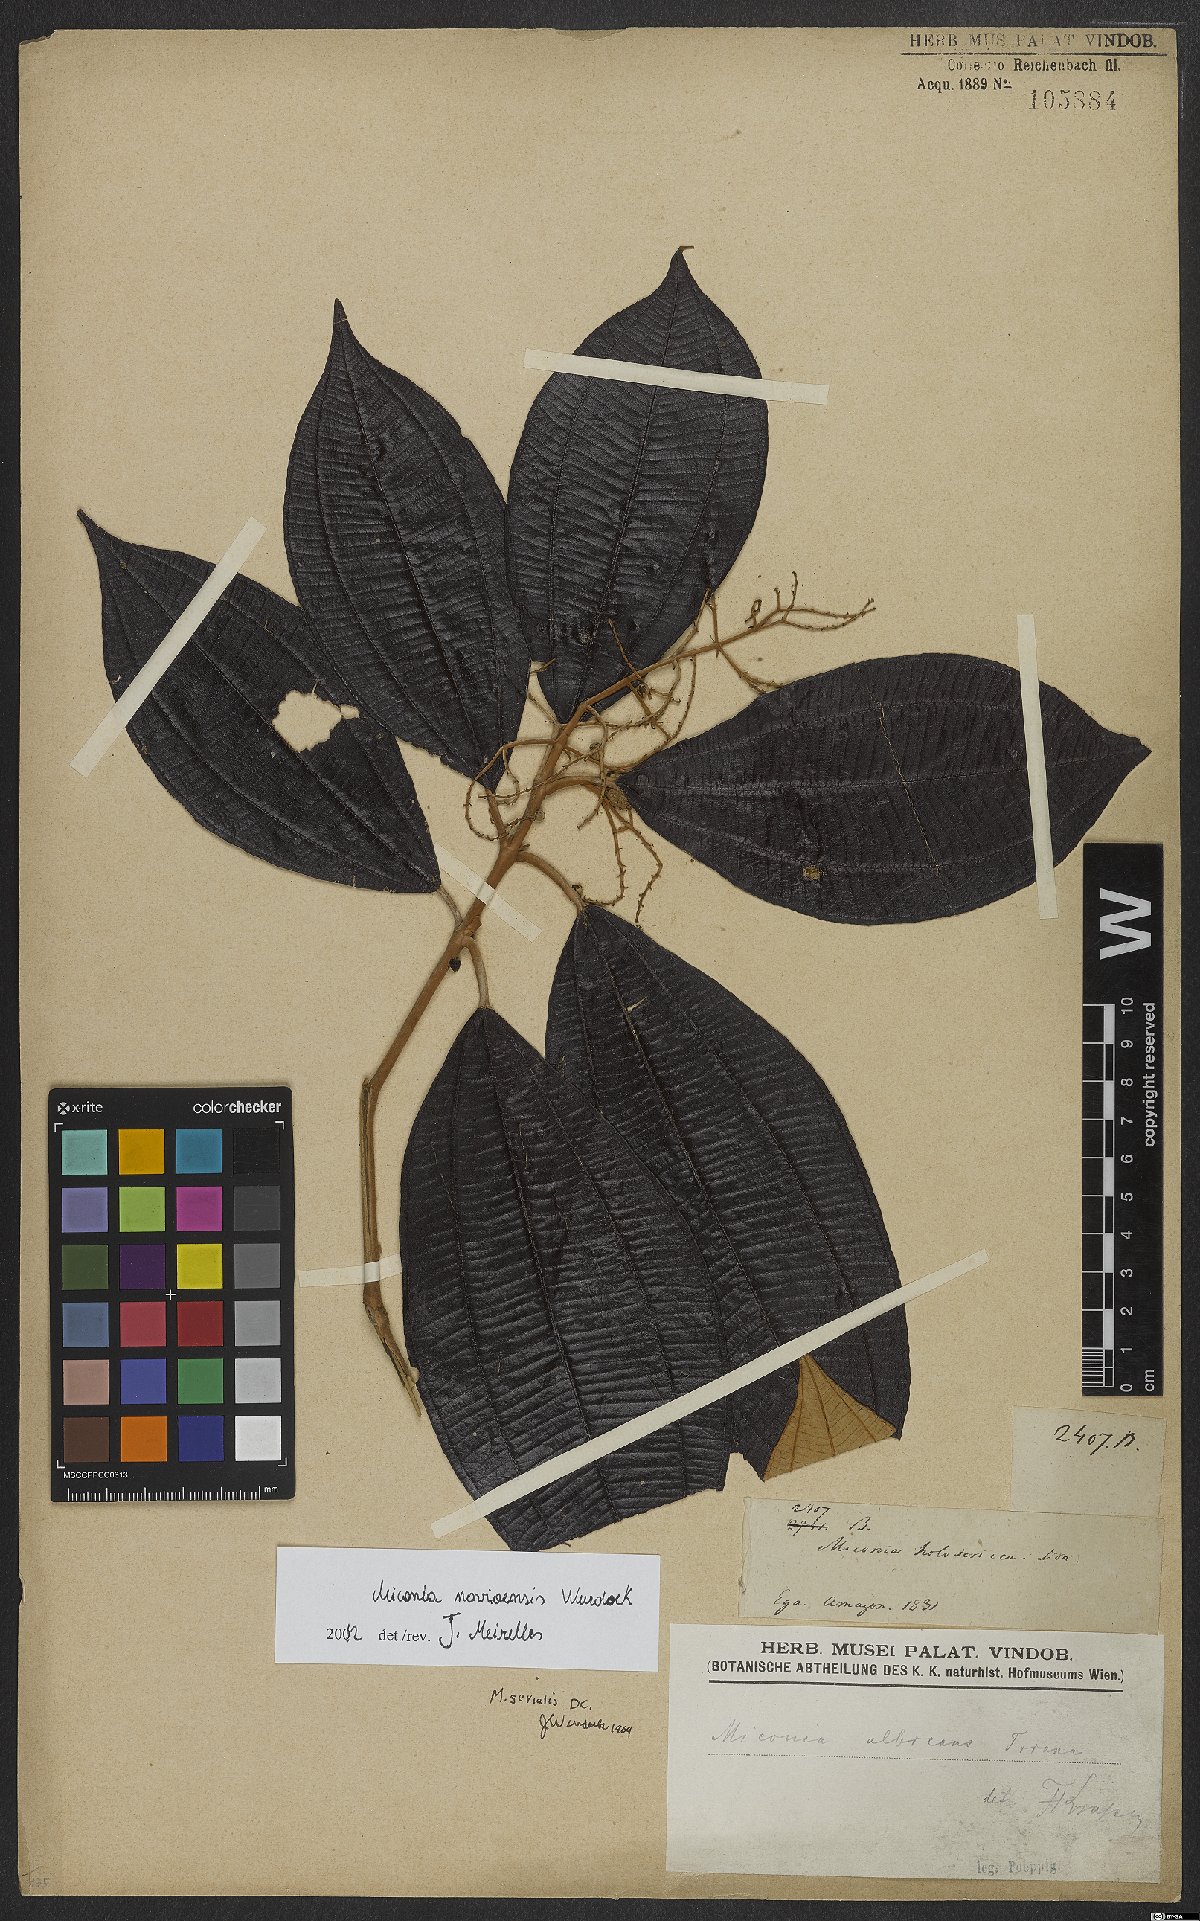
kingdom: Plantae
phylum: Tracheophyta
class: Magnoliopsida
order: Myrtales
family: Melastomataceae
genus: Miconia
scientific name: Miconia navioensis
